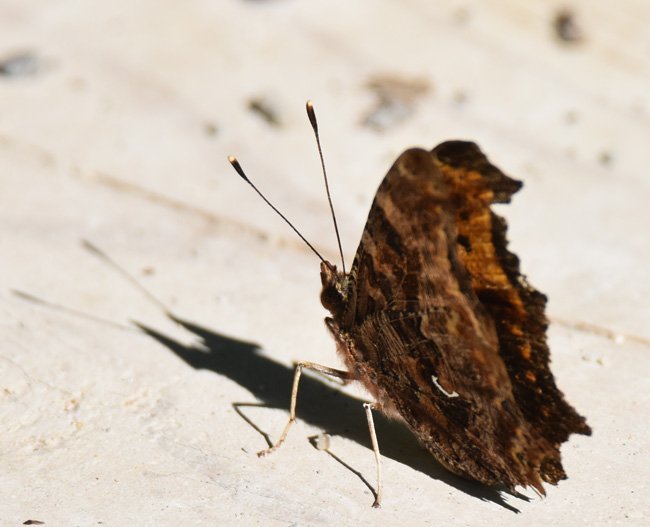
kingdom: Animalia
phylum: Arthropoda
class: Insecta
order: Lepidoptera
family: Nymphalidae
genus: Polygonia
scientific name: Polygonia comma
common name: Eastern Comma
